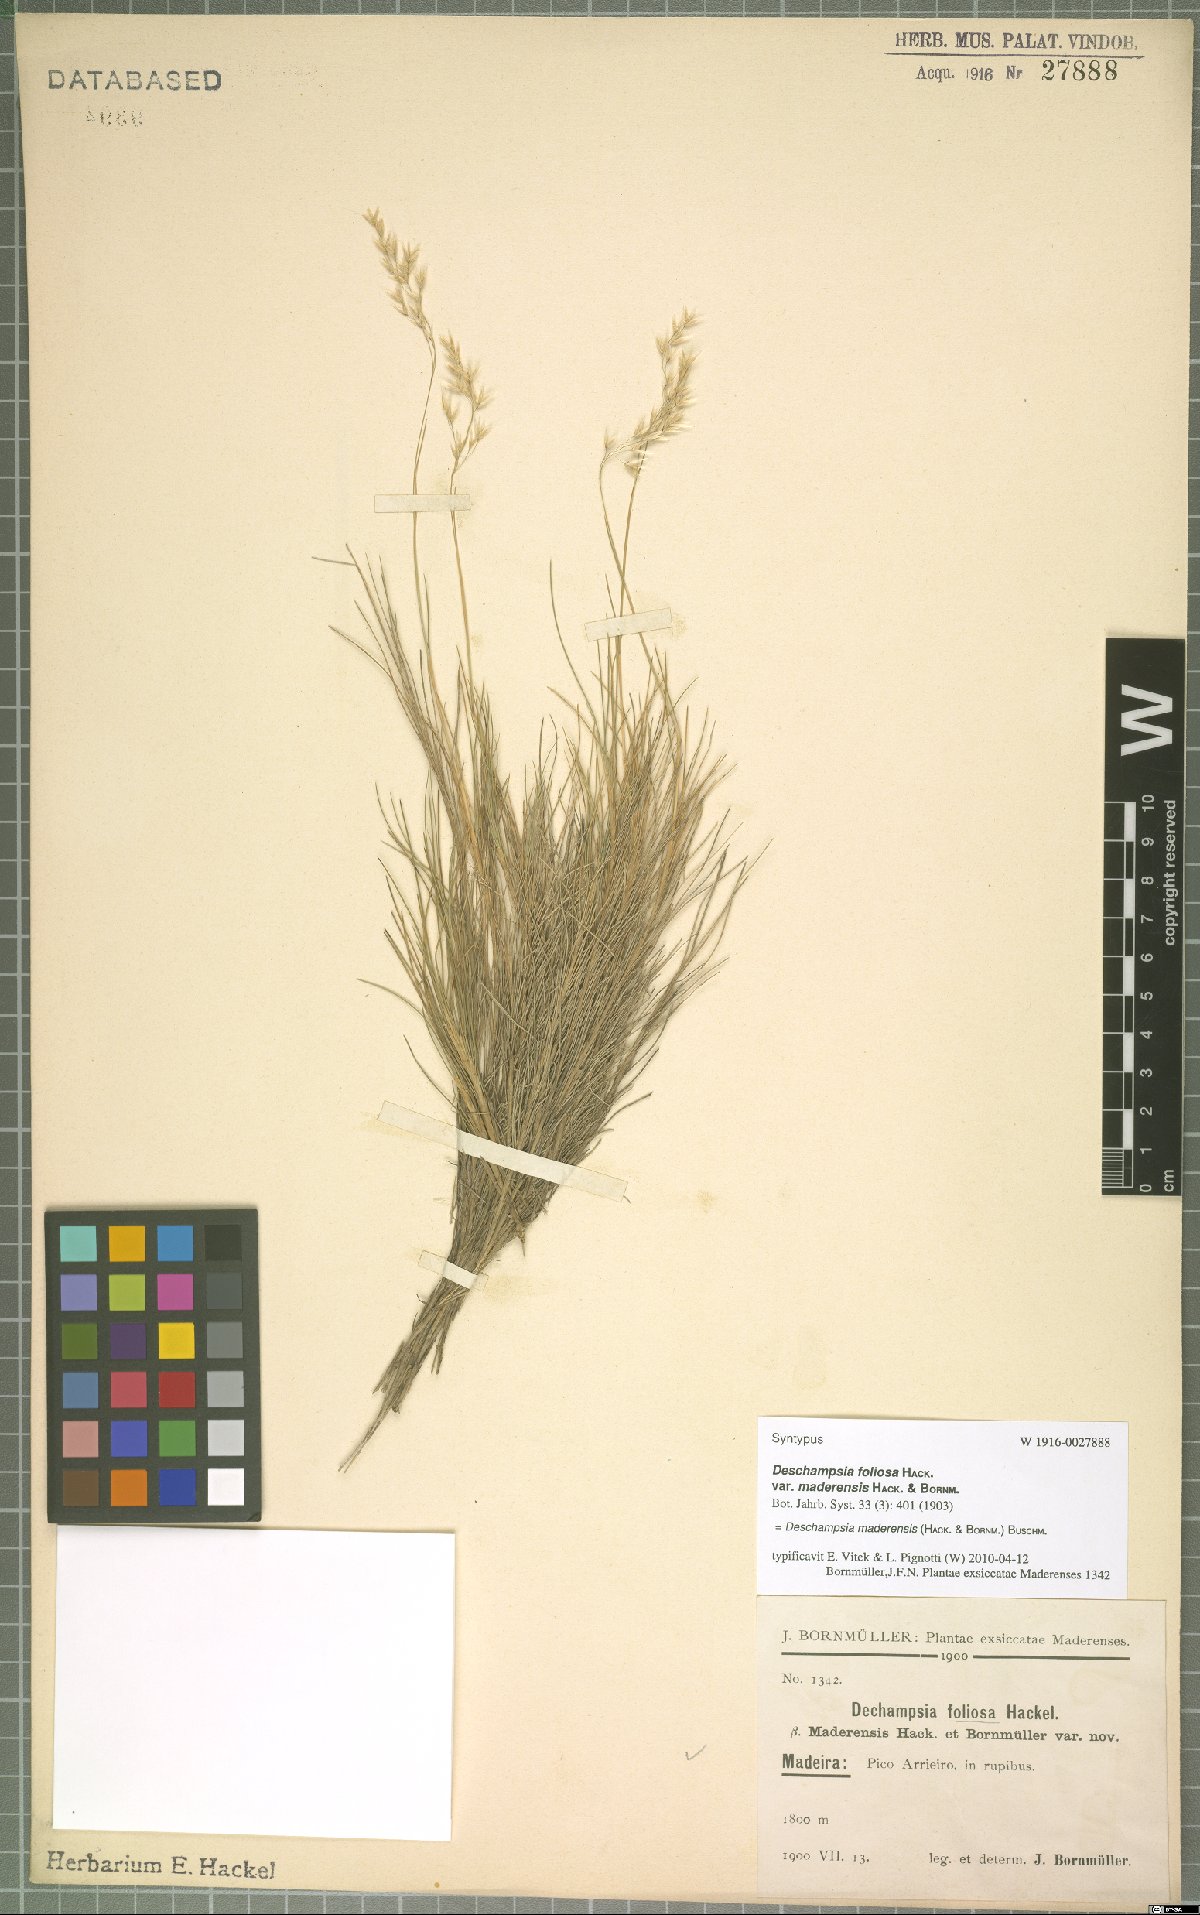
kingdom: Plantae
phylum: Tracheophyta
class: Liliopsida
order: Poales
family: Poaceae
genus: Avenella
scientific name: Avenella flexuosa
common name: Wavy hairgrass
